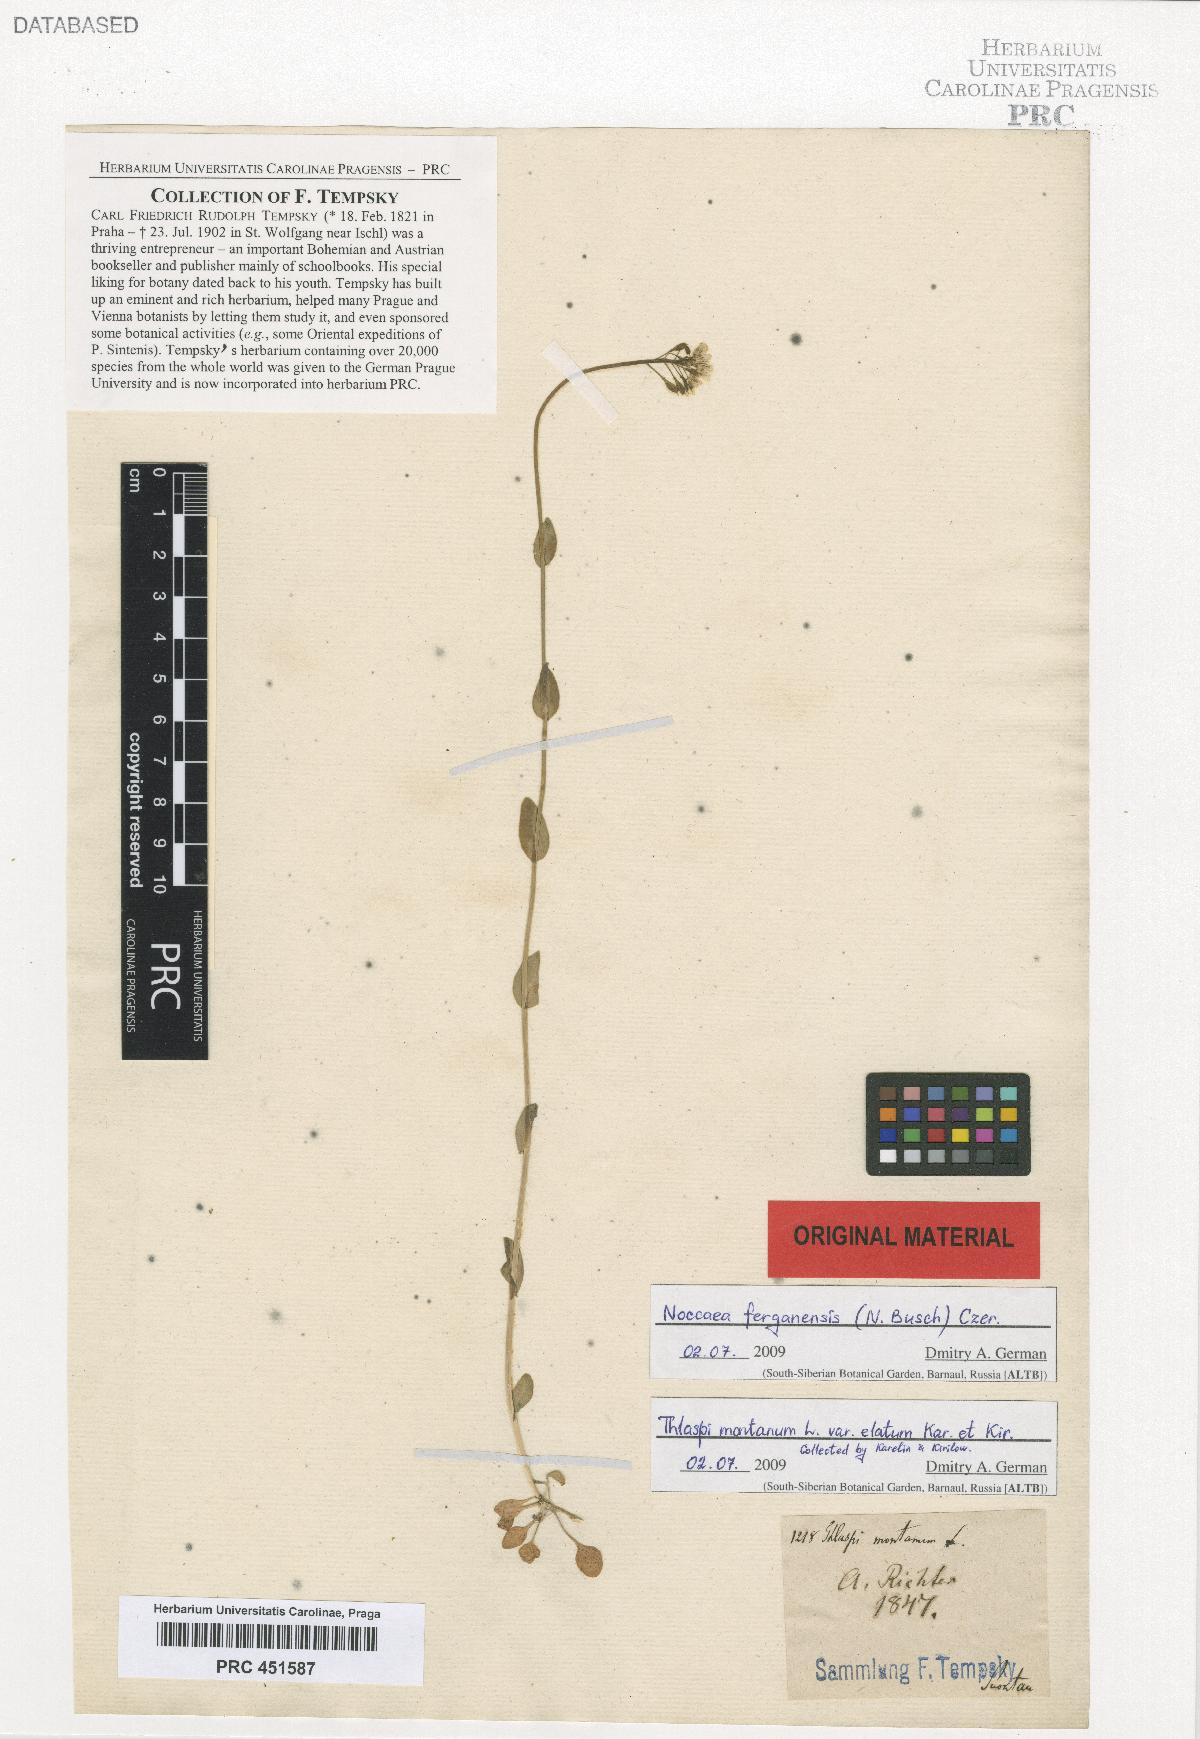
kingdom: Plantae
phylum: Tracheophyta
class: Magnoliopsida
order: Brassicales
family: Brassicaceae
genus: Noccaea
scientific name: Noccaea ferganensis
